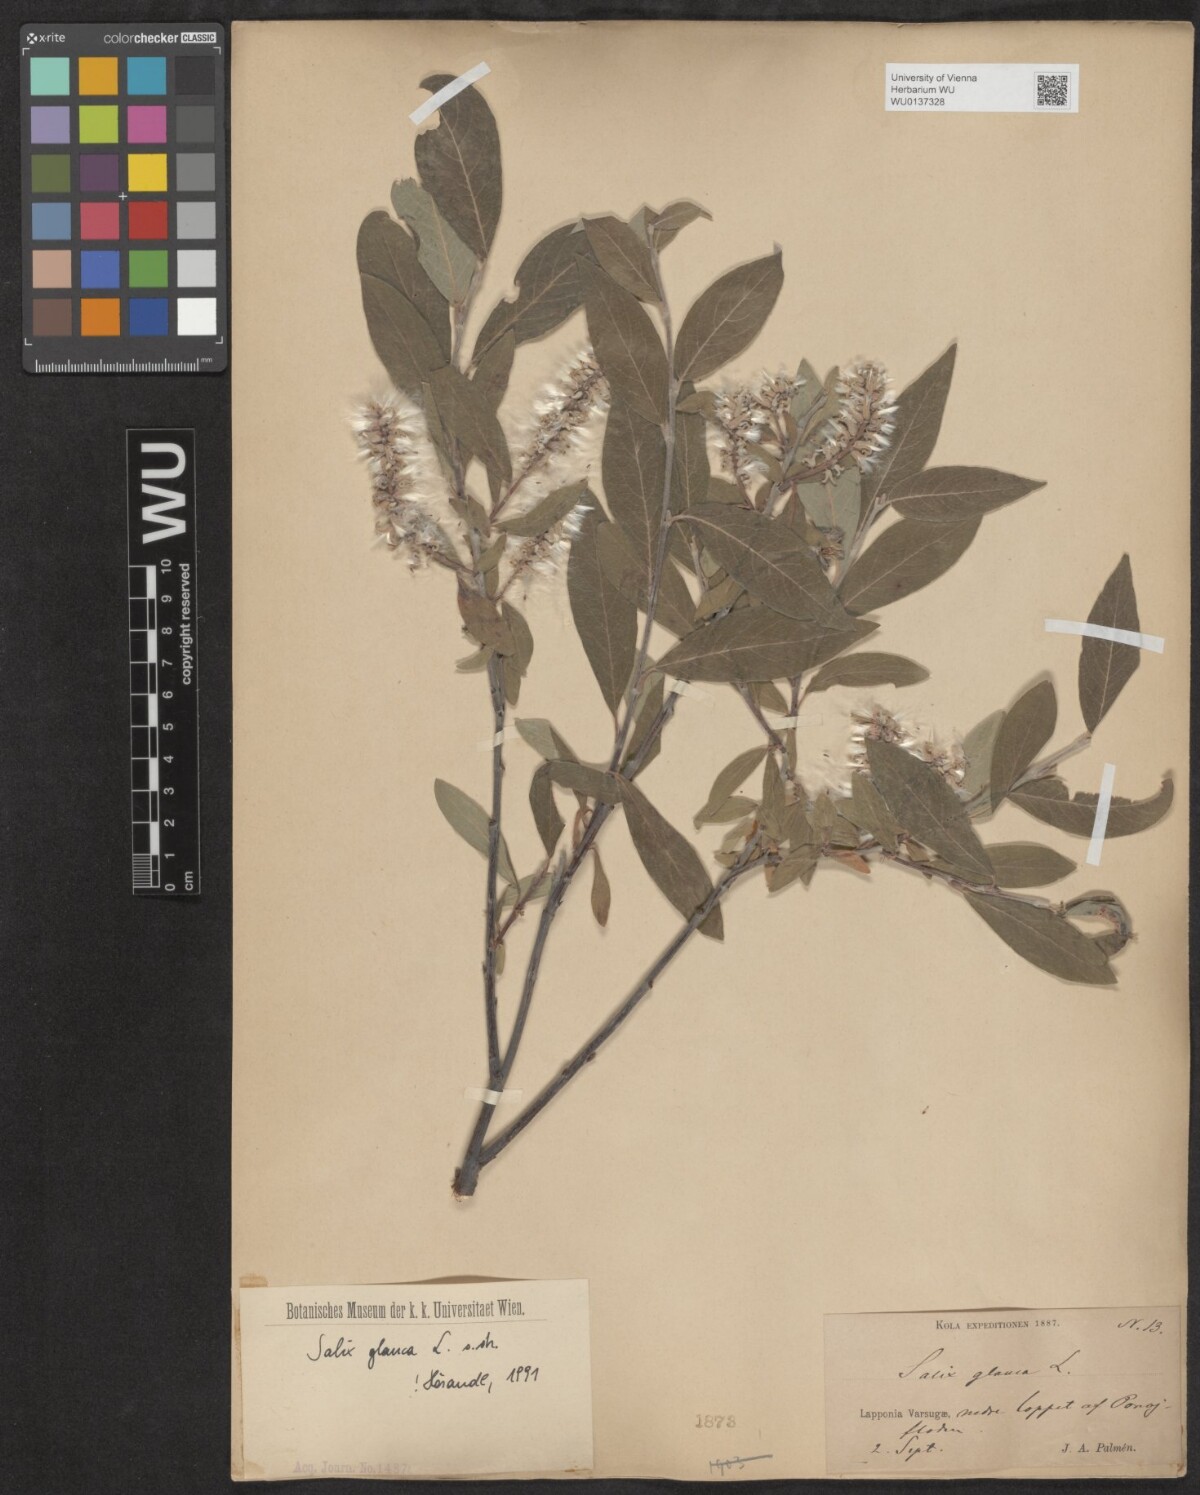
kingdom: Plantae
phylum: Tracheophyta
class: Magnoliopsida
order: Malpighiales
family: Salicaceae
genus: Salix
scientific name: Salix glauca
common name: Glaucous willow
